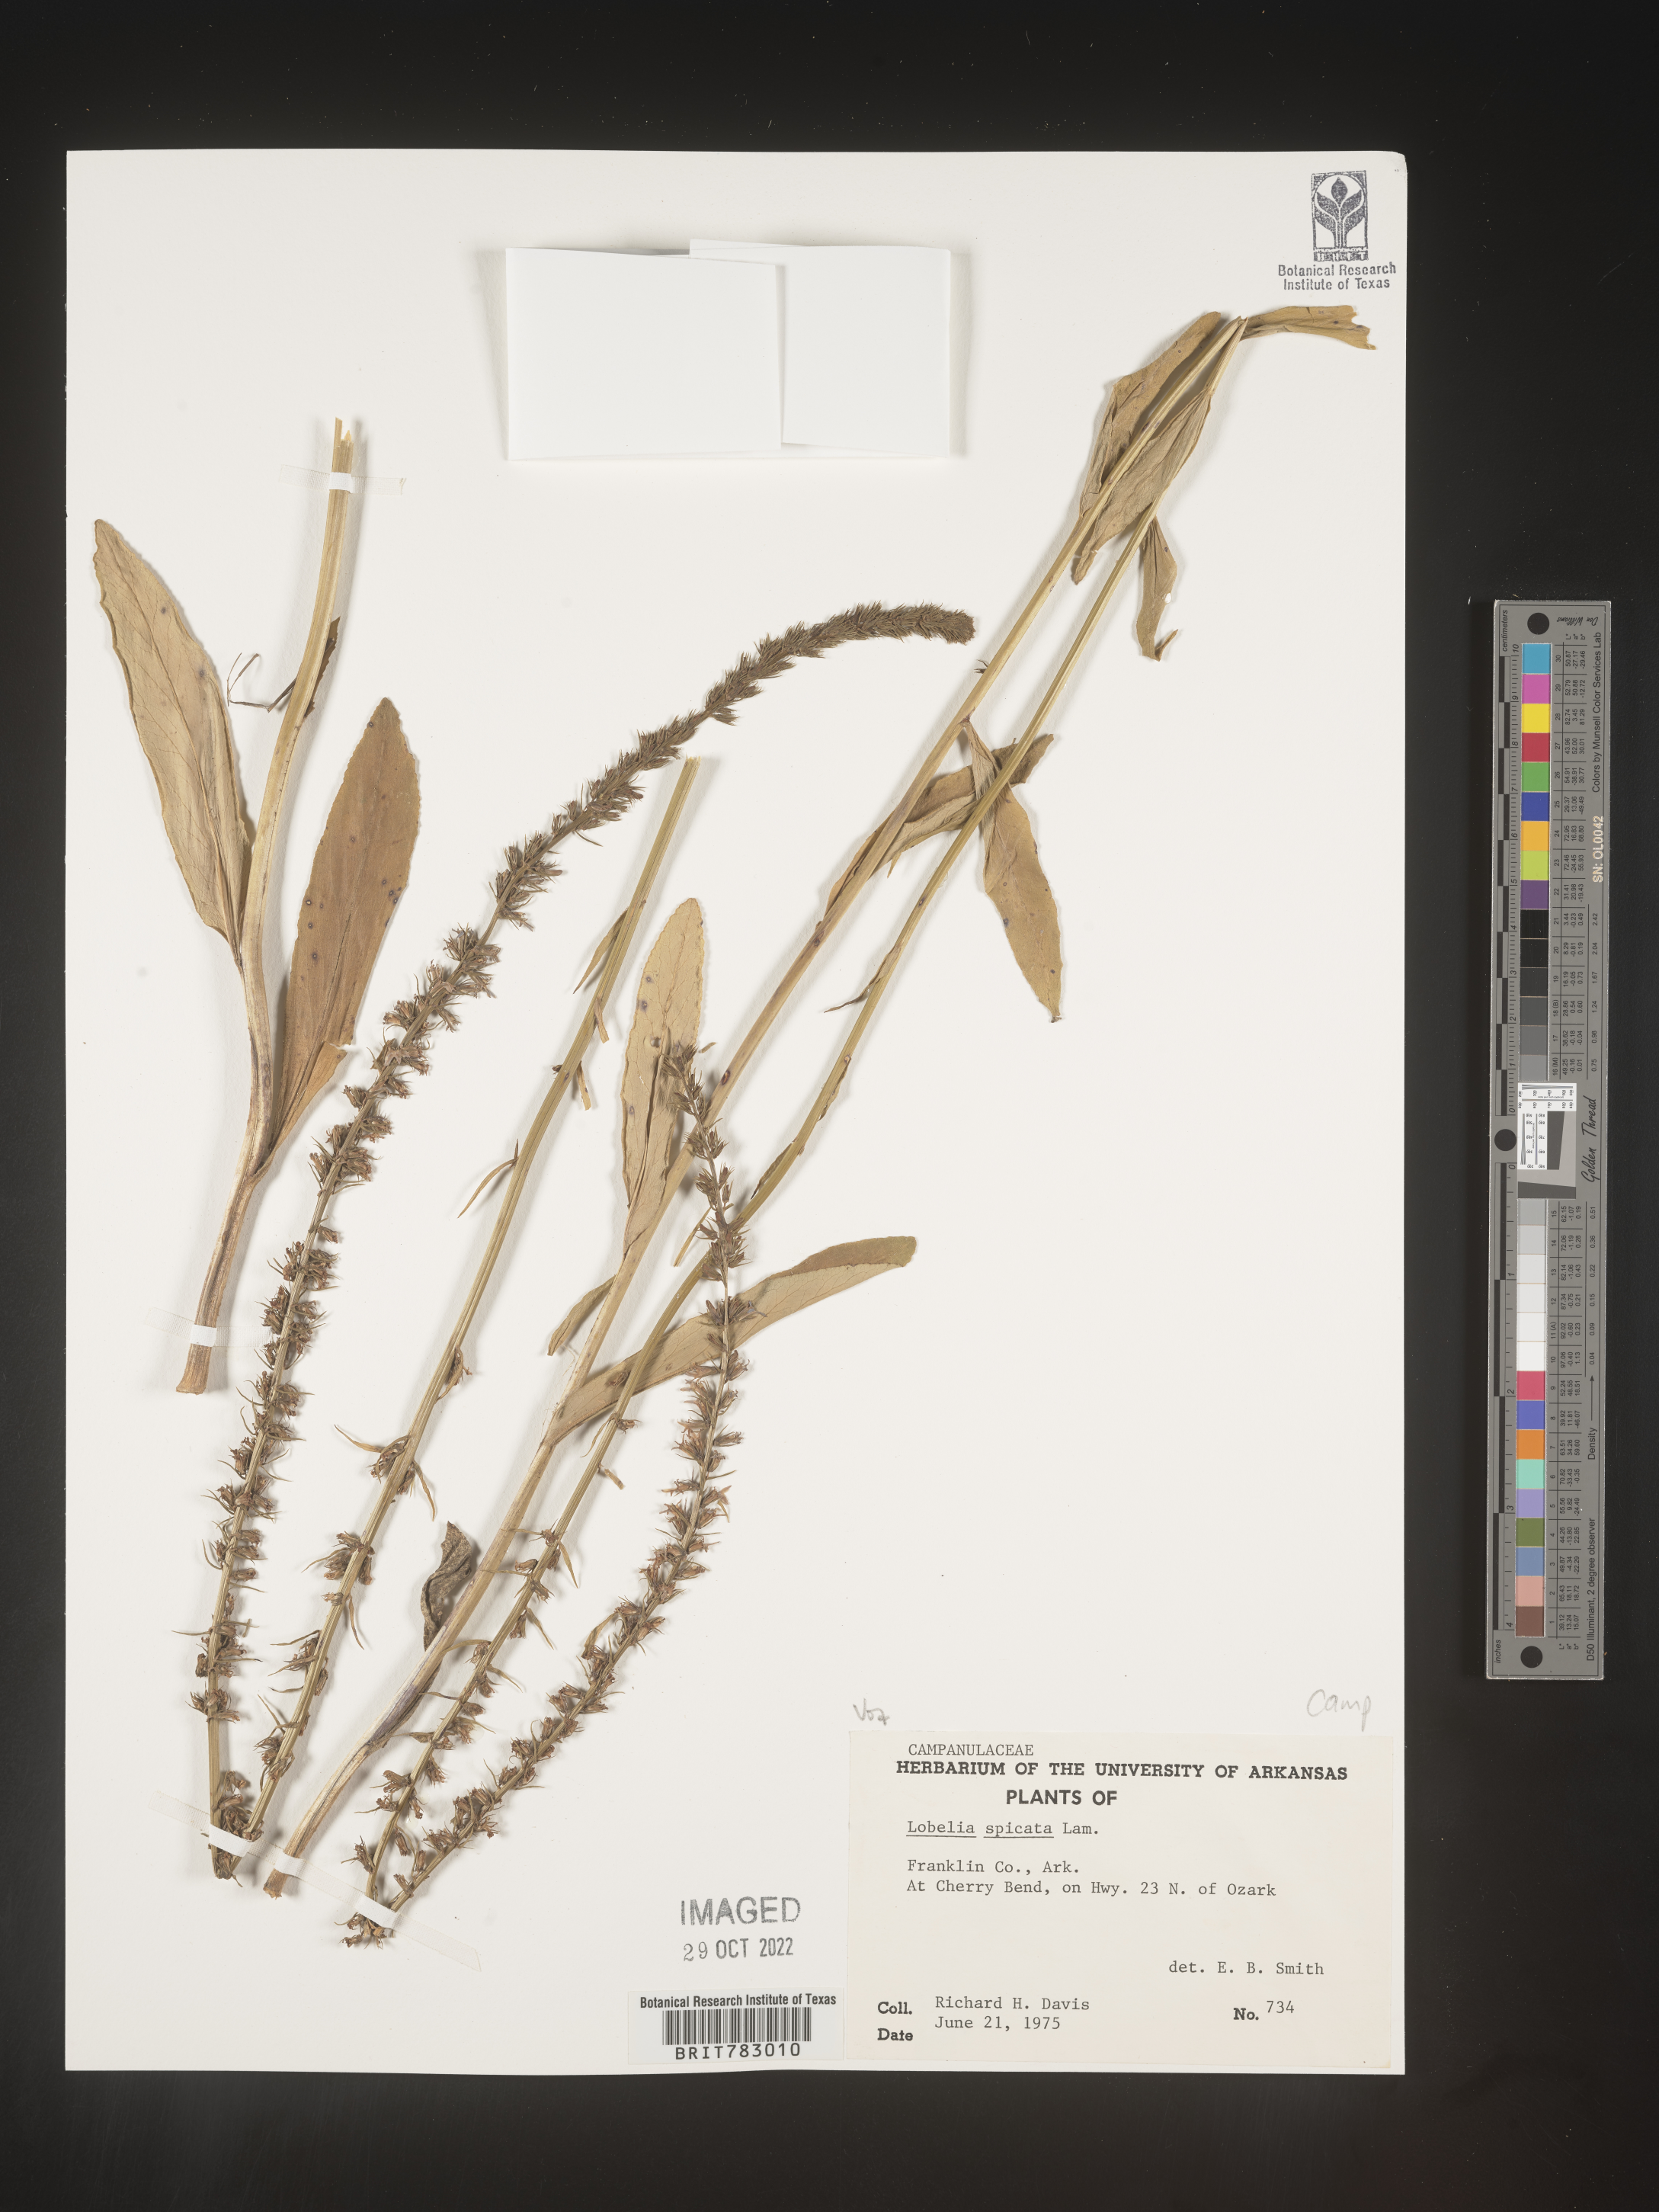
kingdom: Plantae
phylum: Tracheophyta
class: Magnoliopsida
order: Asterales
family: Campanulaceae
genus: Lobelia
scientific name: Lobelia spicata
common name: Pale-spike lobelia
